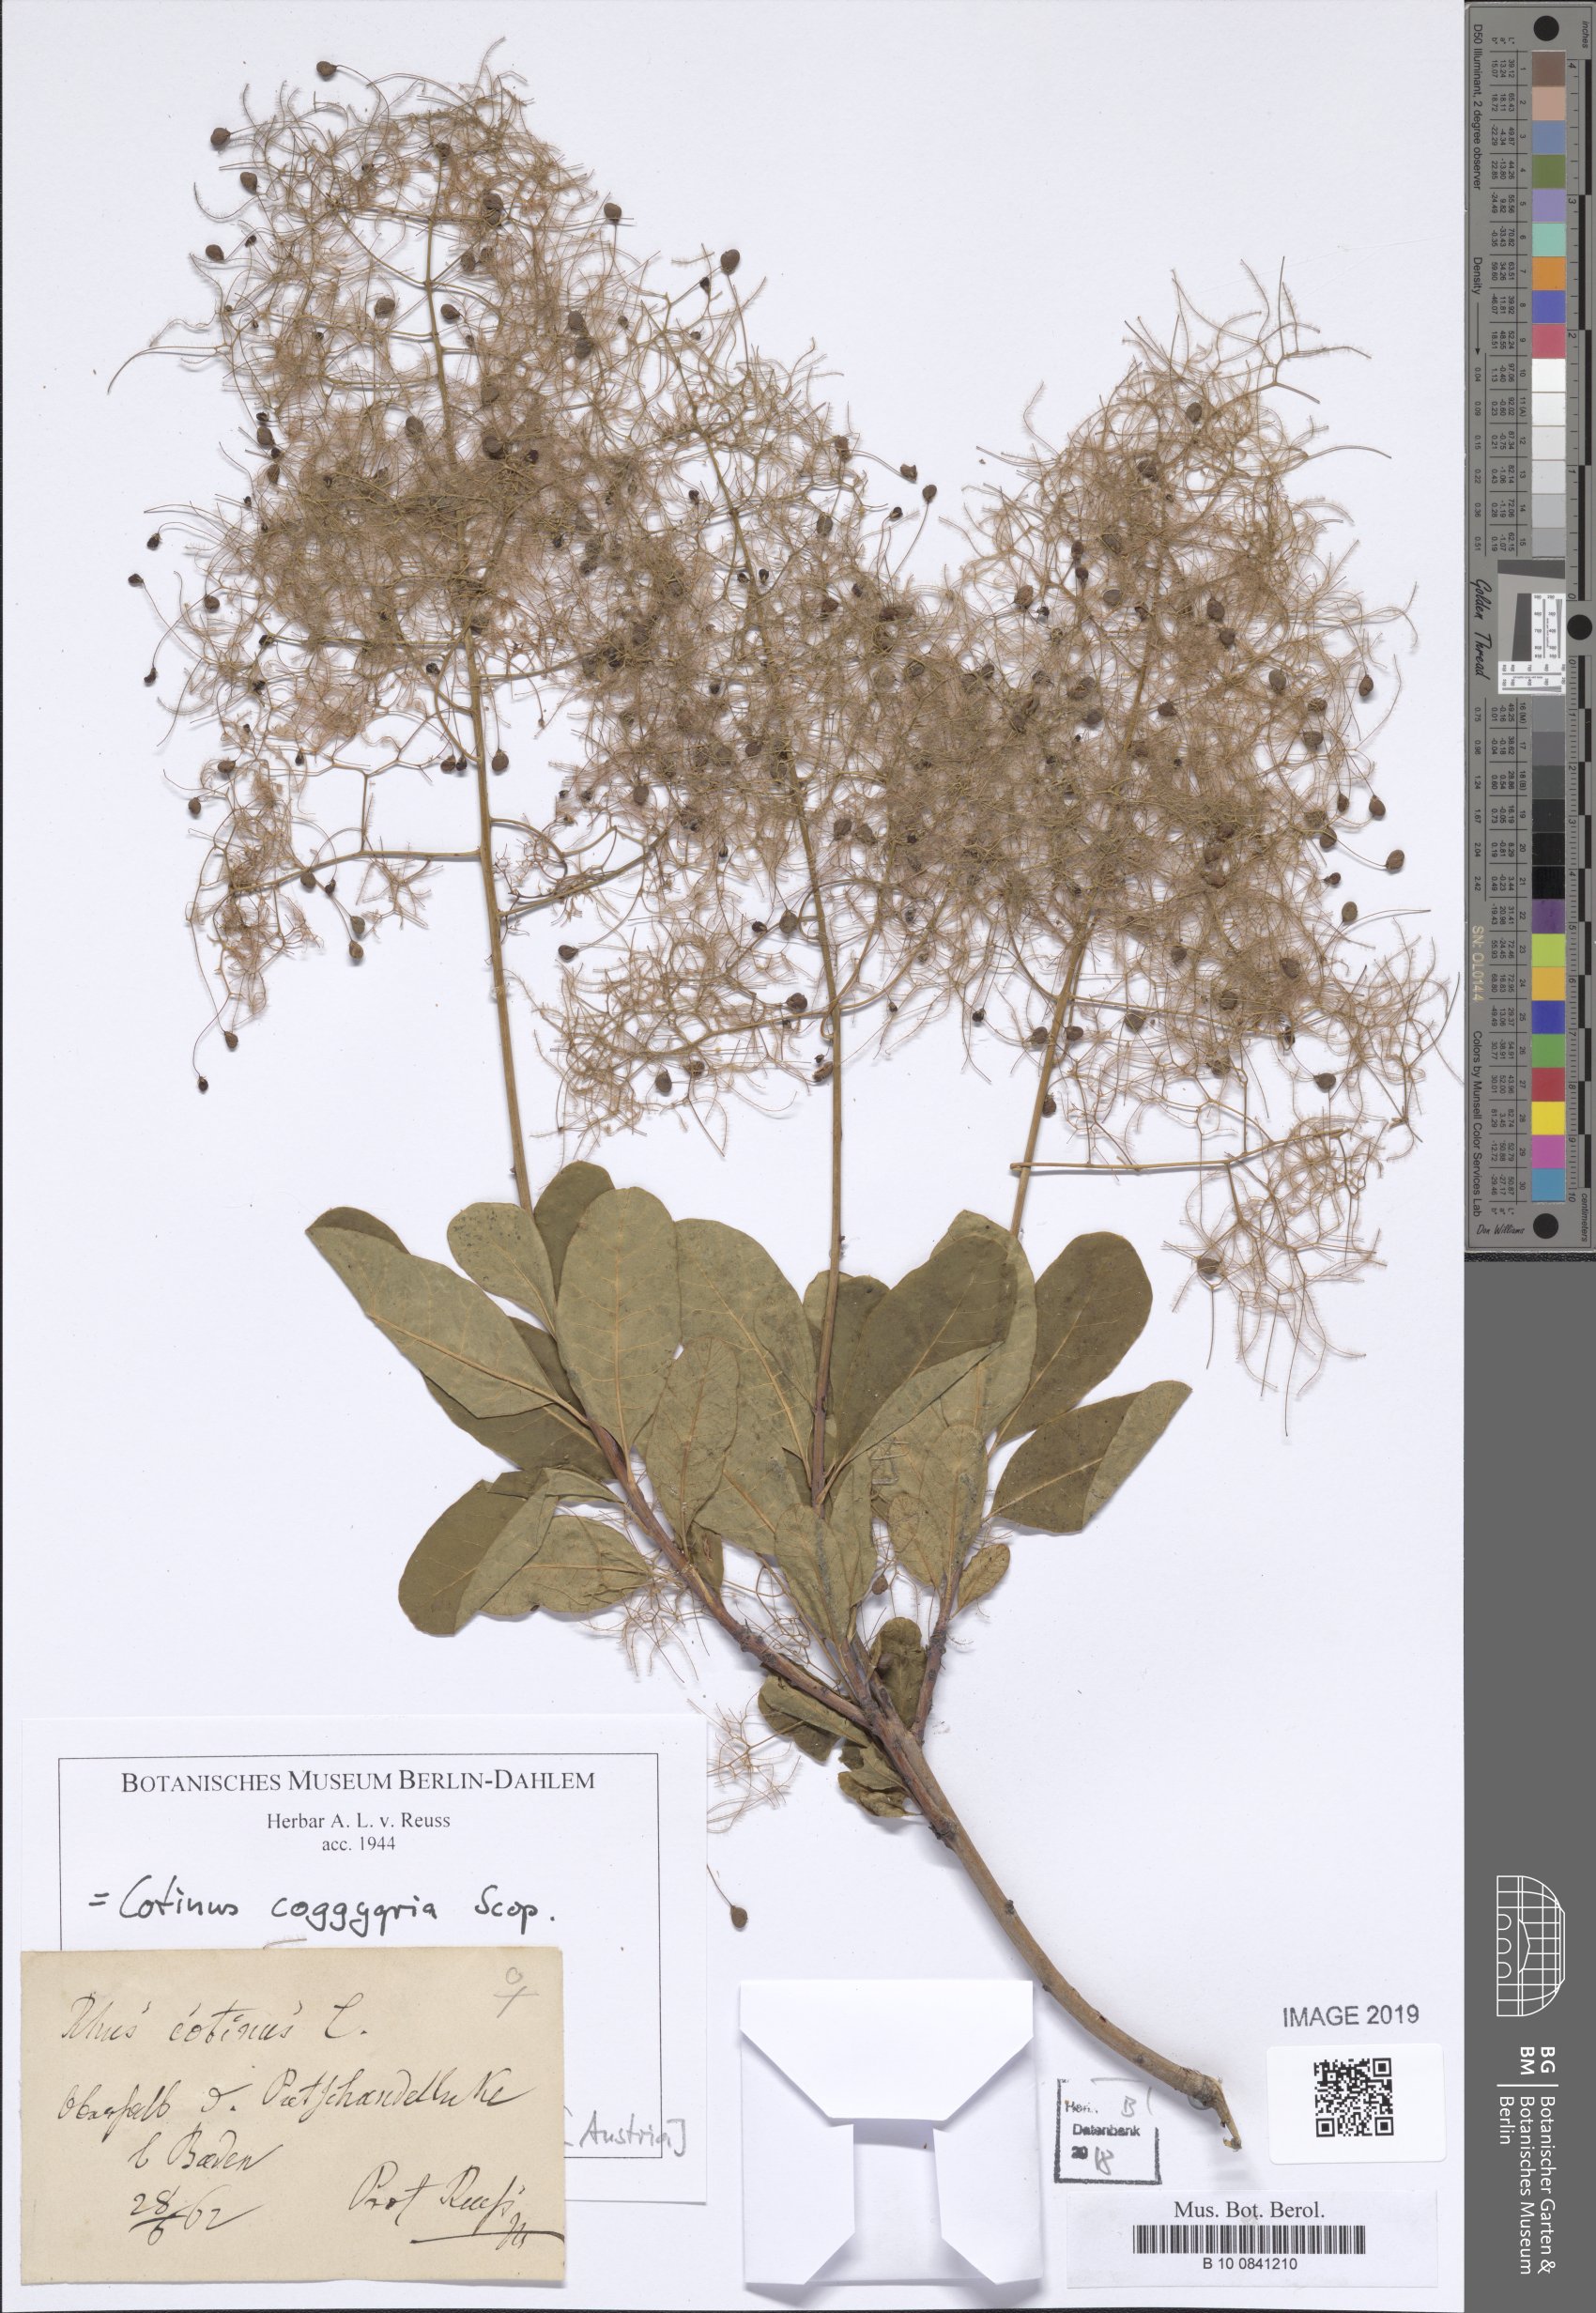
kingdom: Plantae
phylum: Tracheophyta
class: Magnoliopsida
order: Sapindales
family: Anacardiaceae
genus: Cotinus
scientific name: Cotinus coggygria
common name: Smoke-tree
